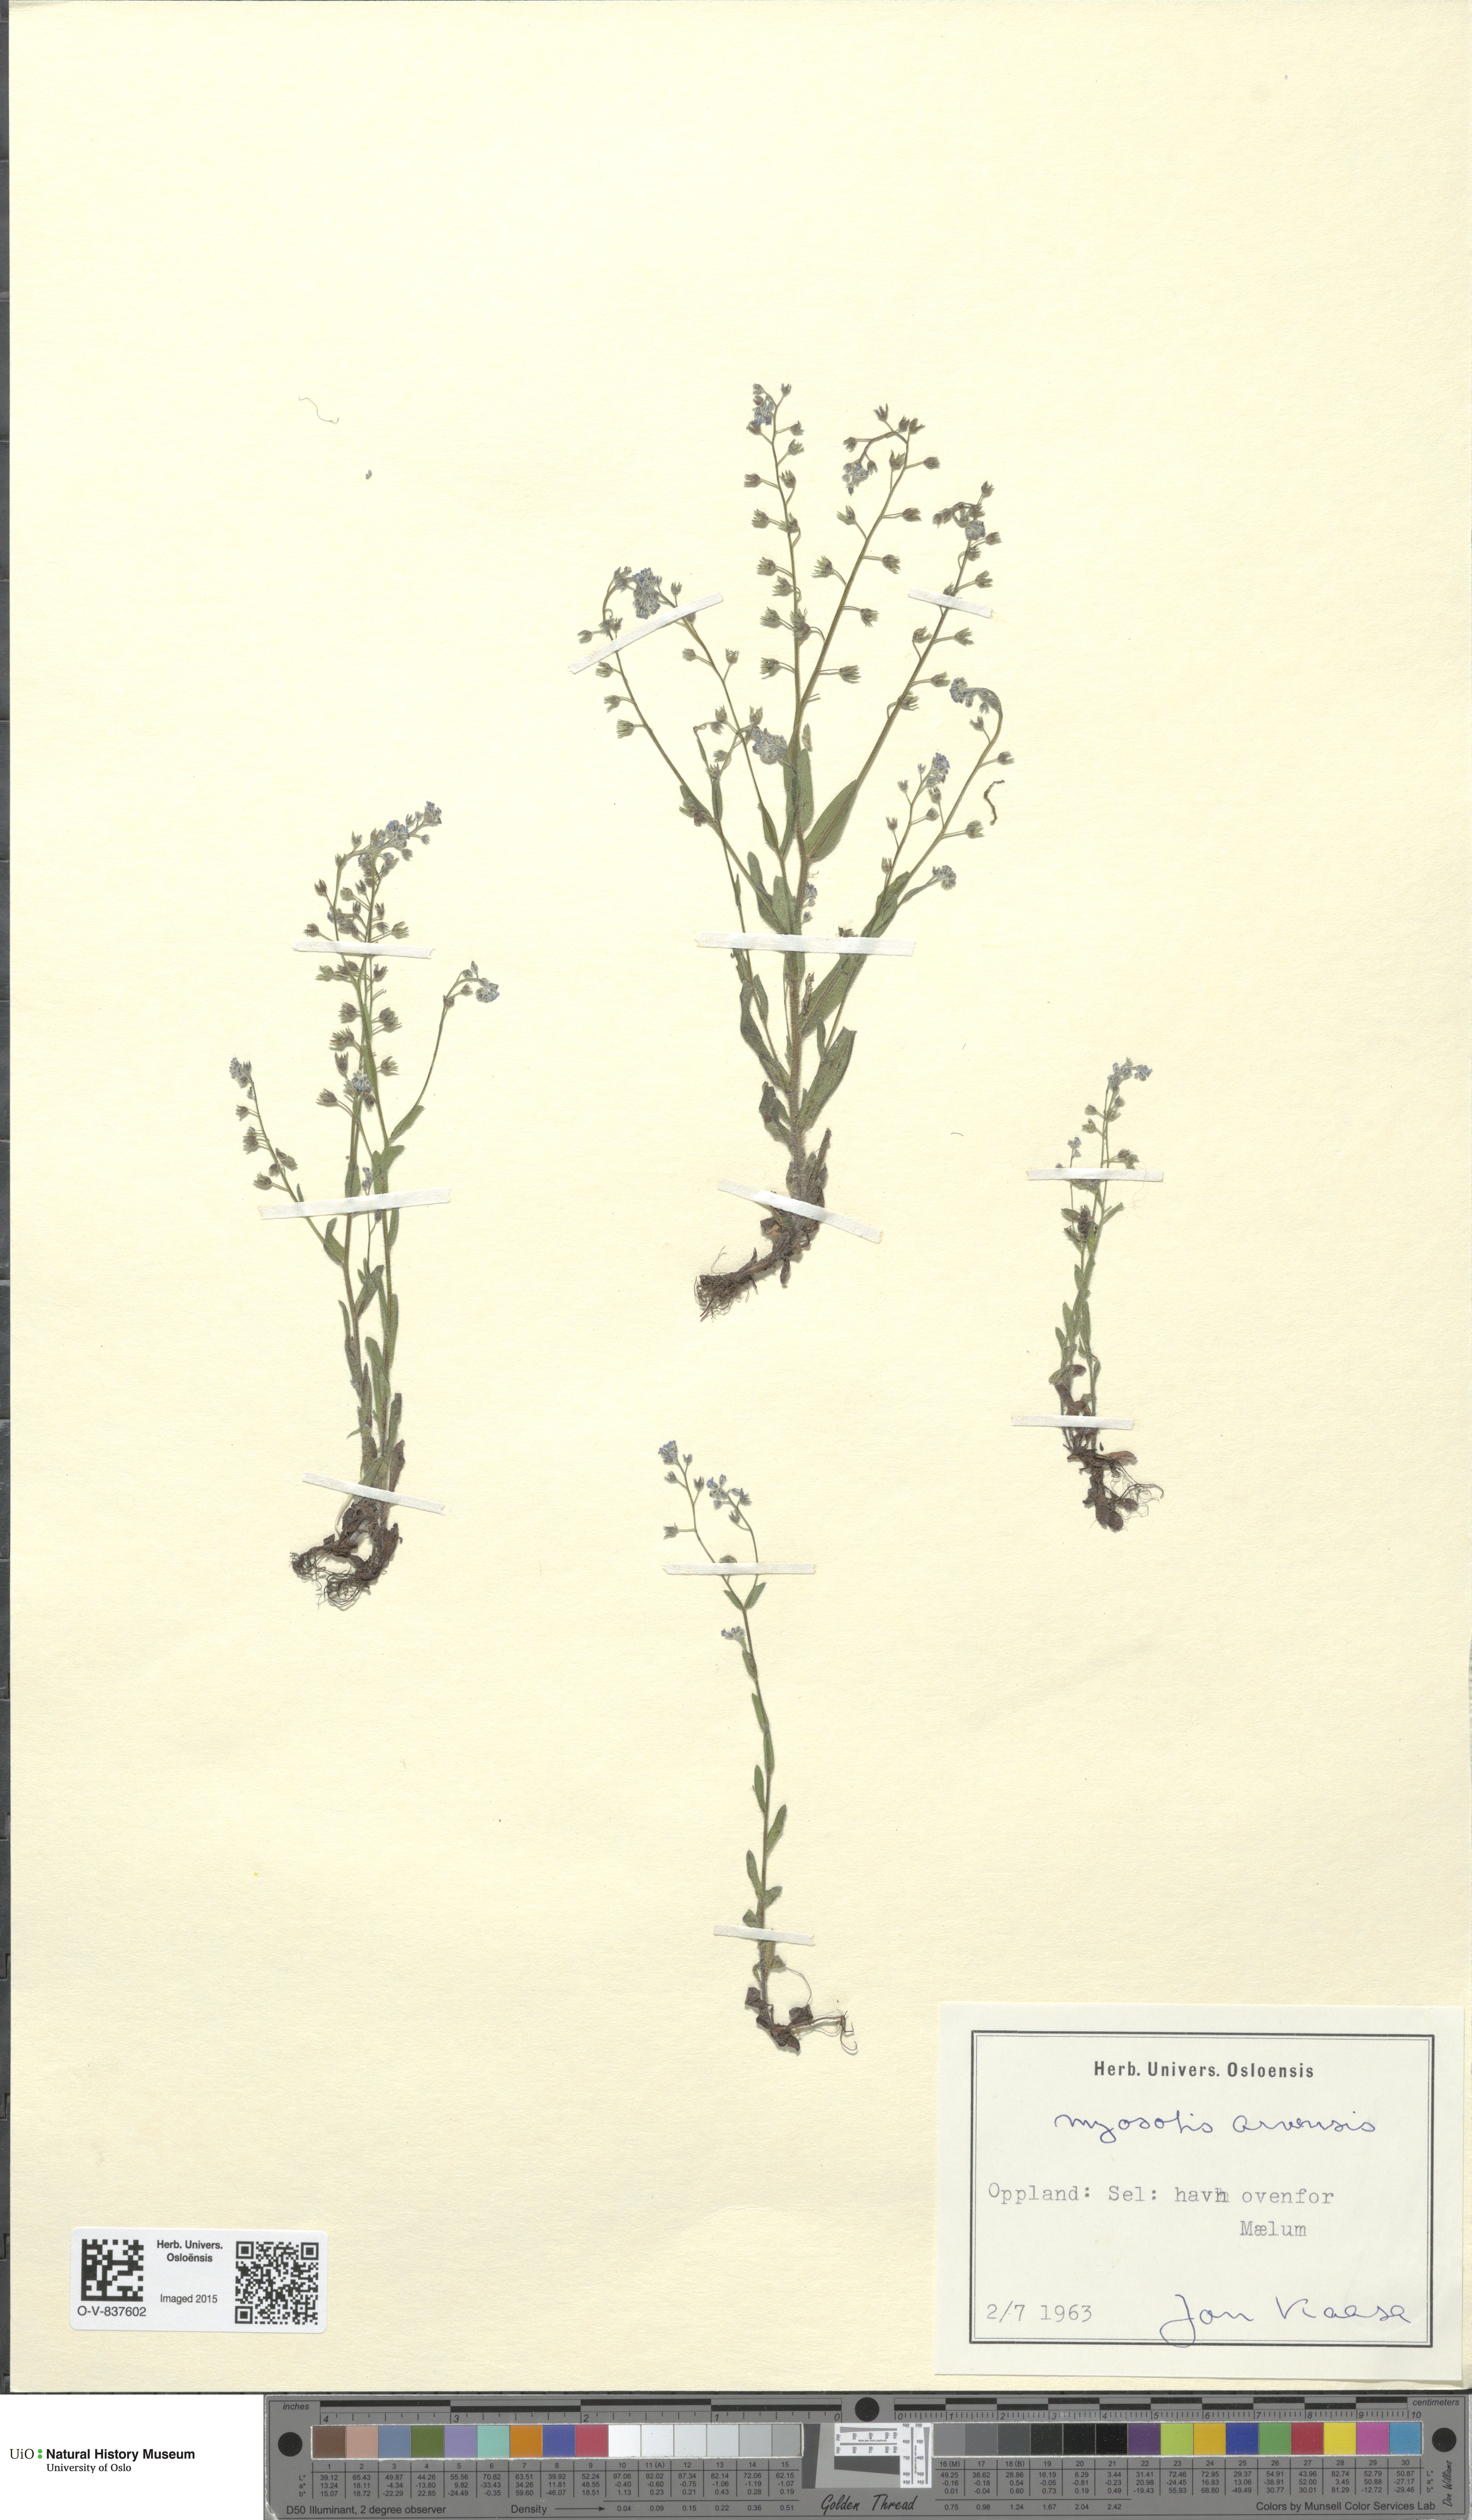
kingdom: Plantae
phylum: Tracheophyta
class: Magnoliopsida
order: Boraginales
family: Boraginaceae
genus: Myosotis
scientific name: Myosotis arvensis
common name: Field forget-me-not
